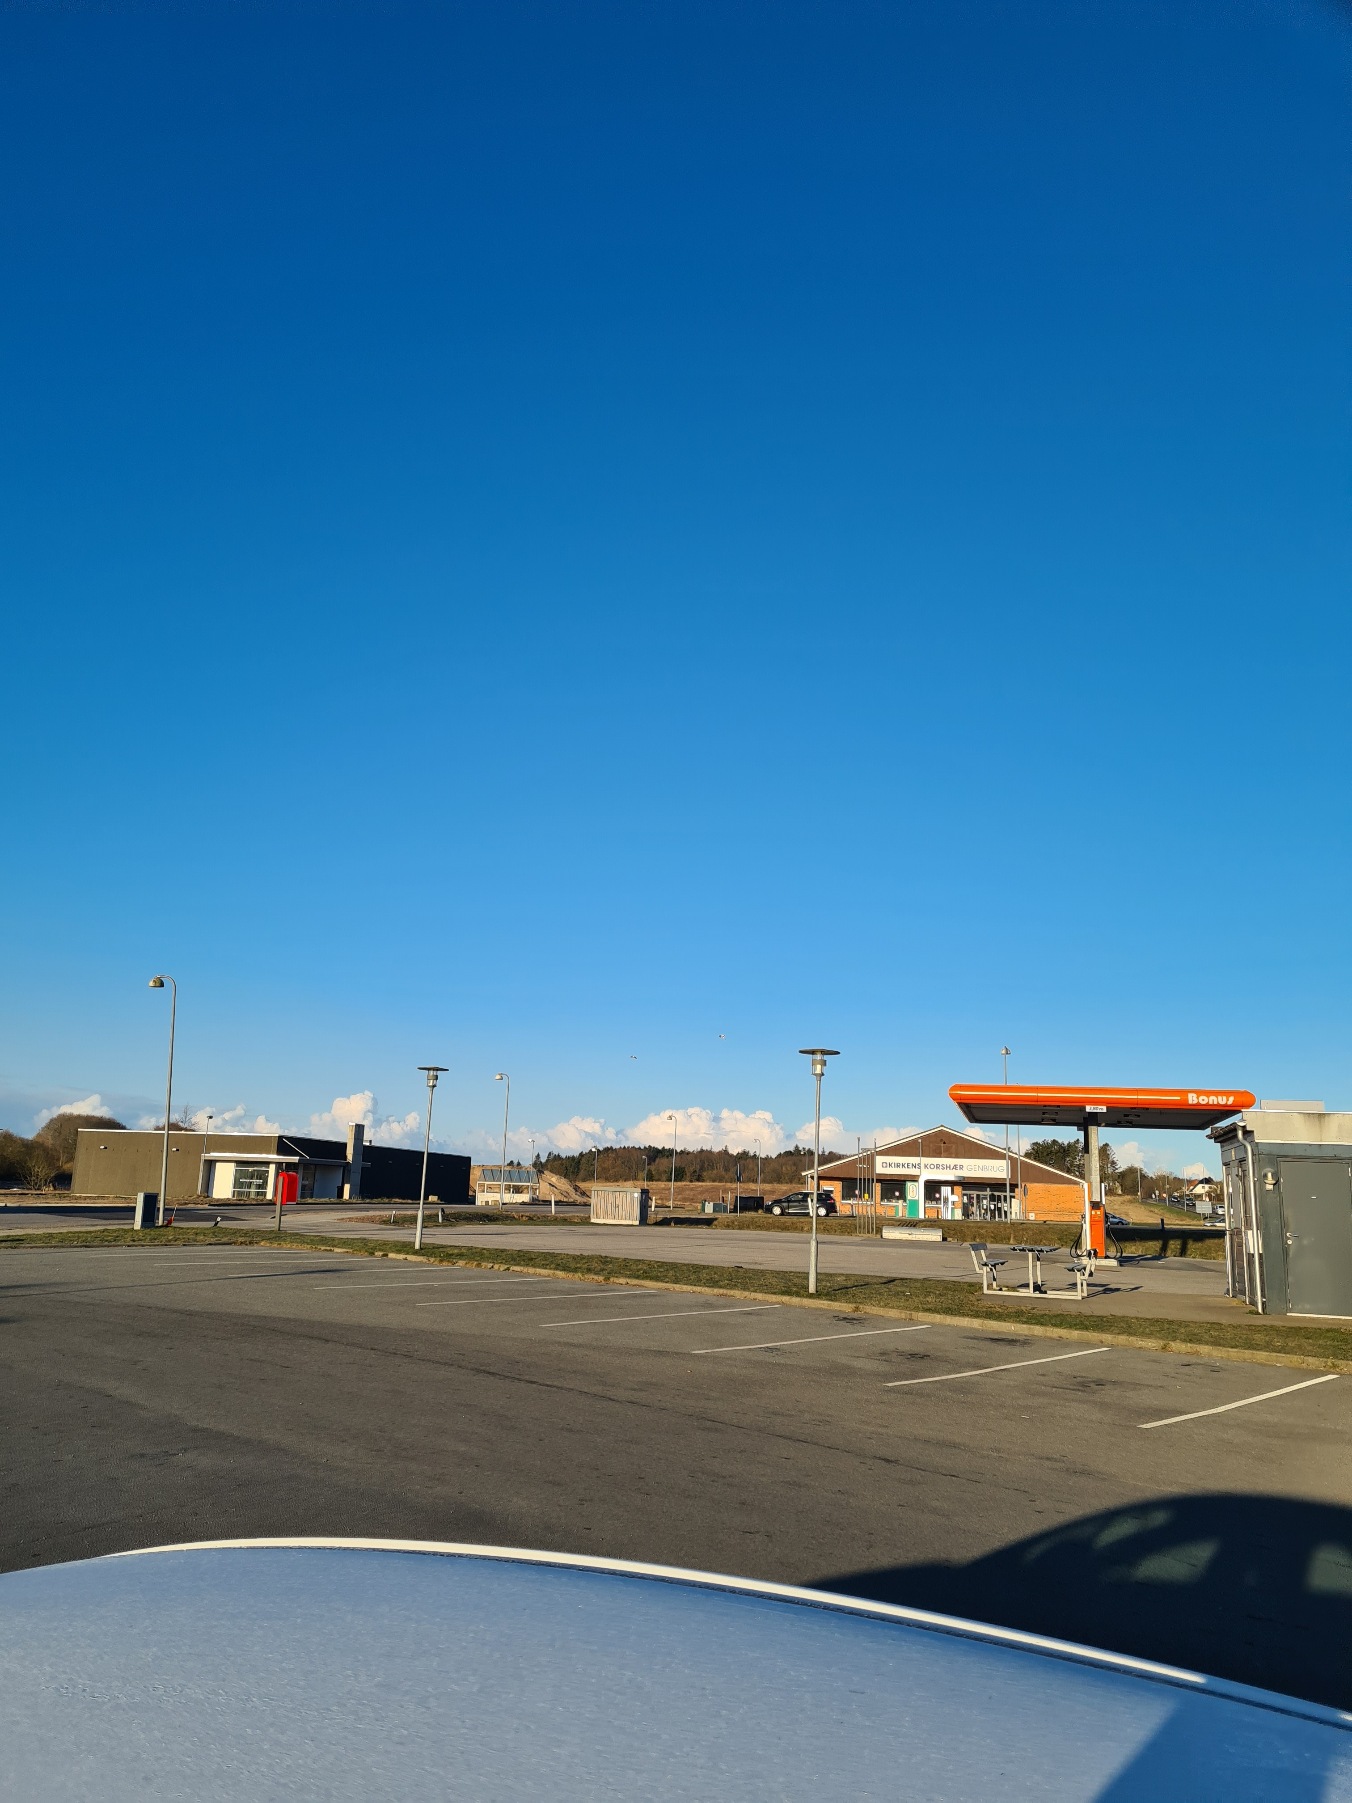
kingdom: Animalia
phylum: Chordata
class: Aves
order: Charadriiformes
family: Haematopodidae
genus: Haematopus
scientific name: Haematopus ostralegus
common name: Strandskade
